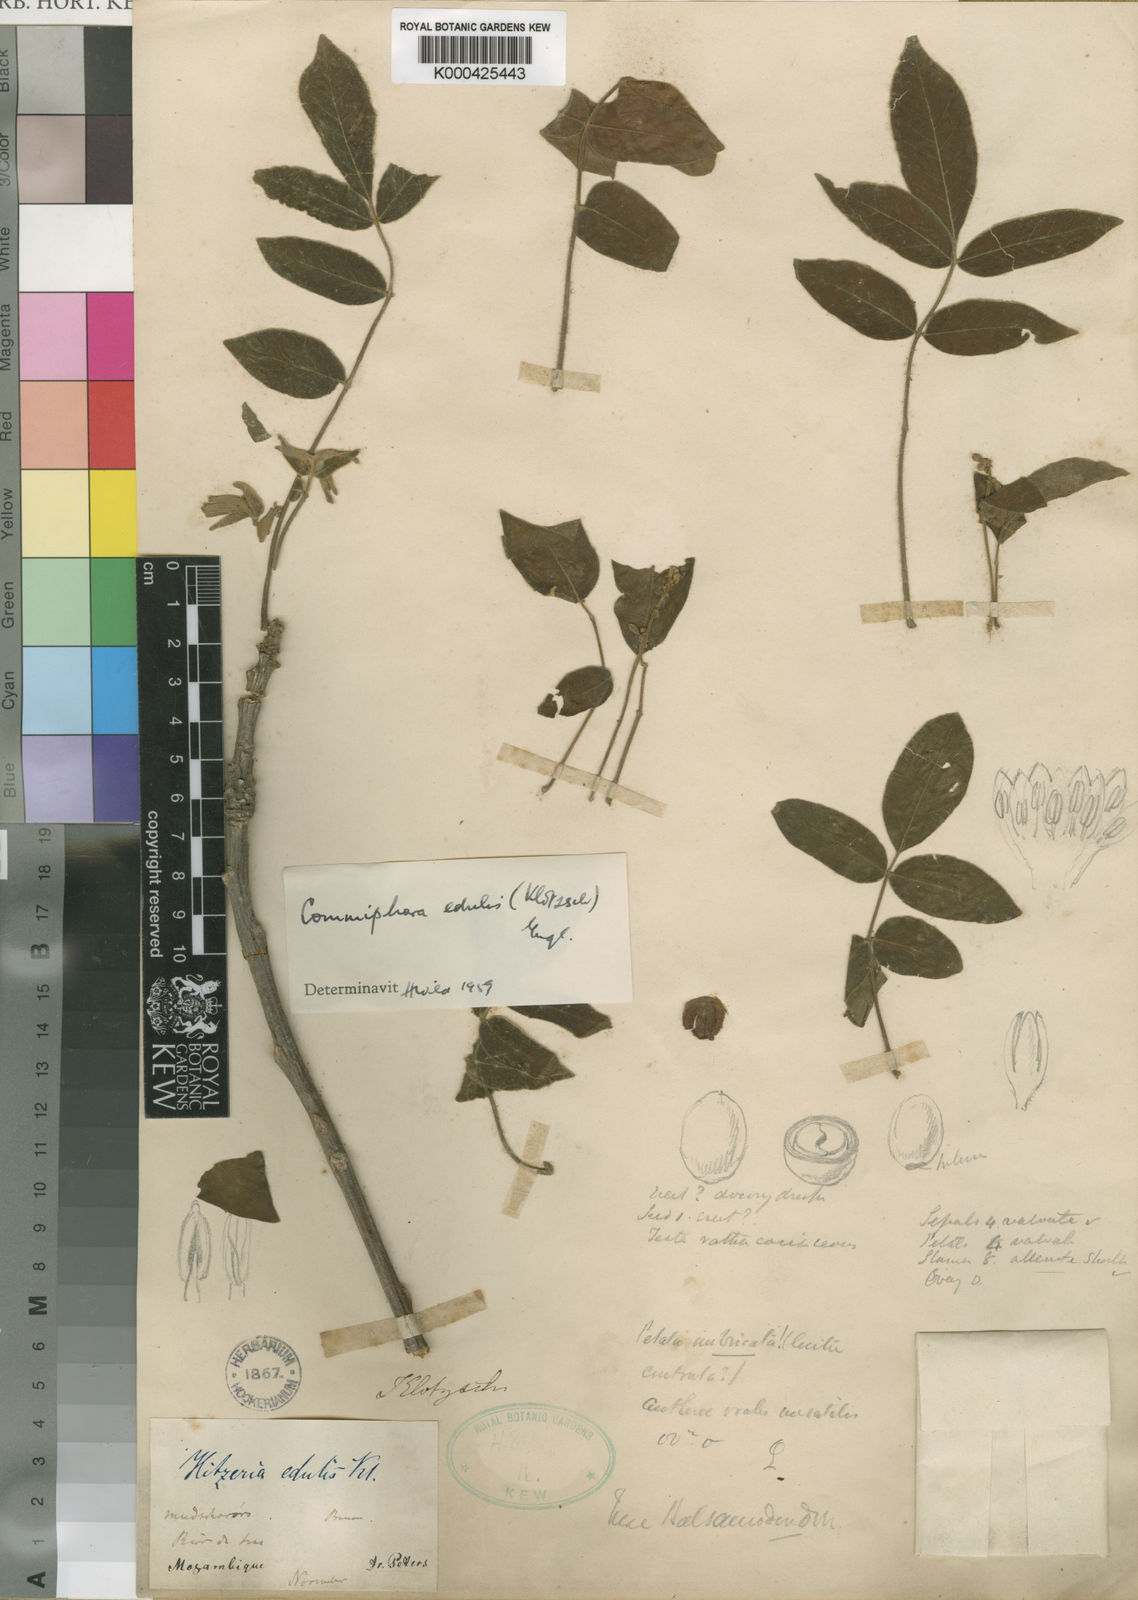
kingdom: Plantae
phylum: Tracheophyta
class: Magnoliopsida
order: Sapindales
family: Burseraceae
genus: Commiphora
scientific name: Commiphora edulis
